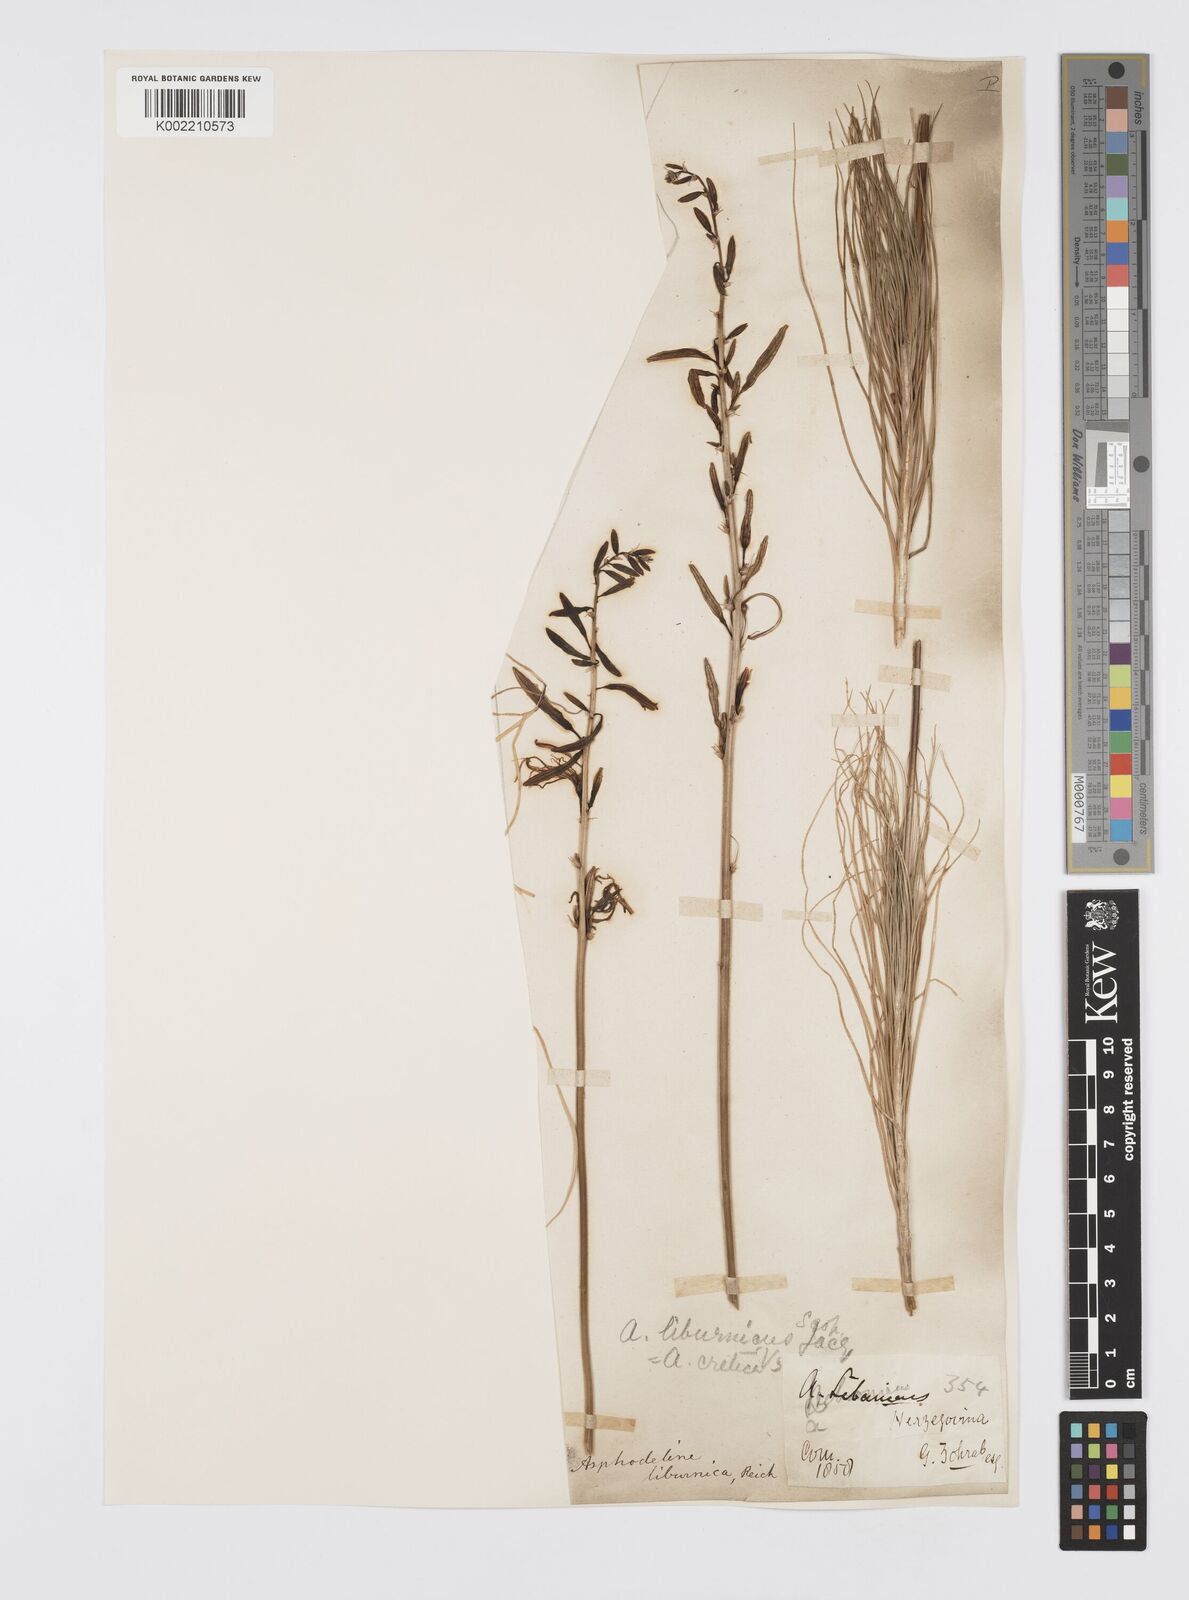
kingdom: Plantae
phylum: Tracheophyta
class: Liliopsida
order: Asparagales
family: Asphodelaceae
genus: Asphodeline
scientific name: Asphodeline liburnica
